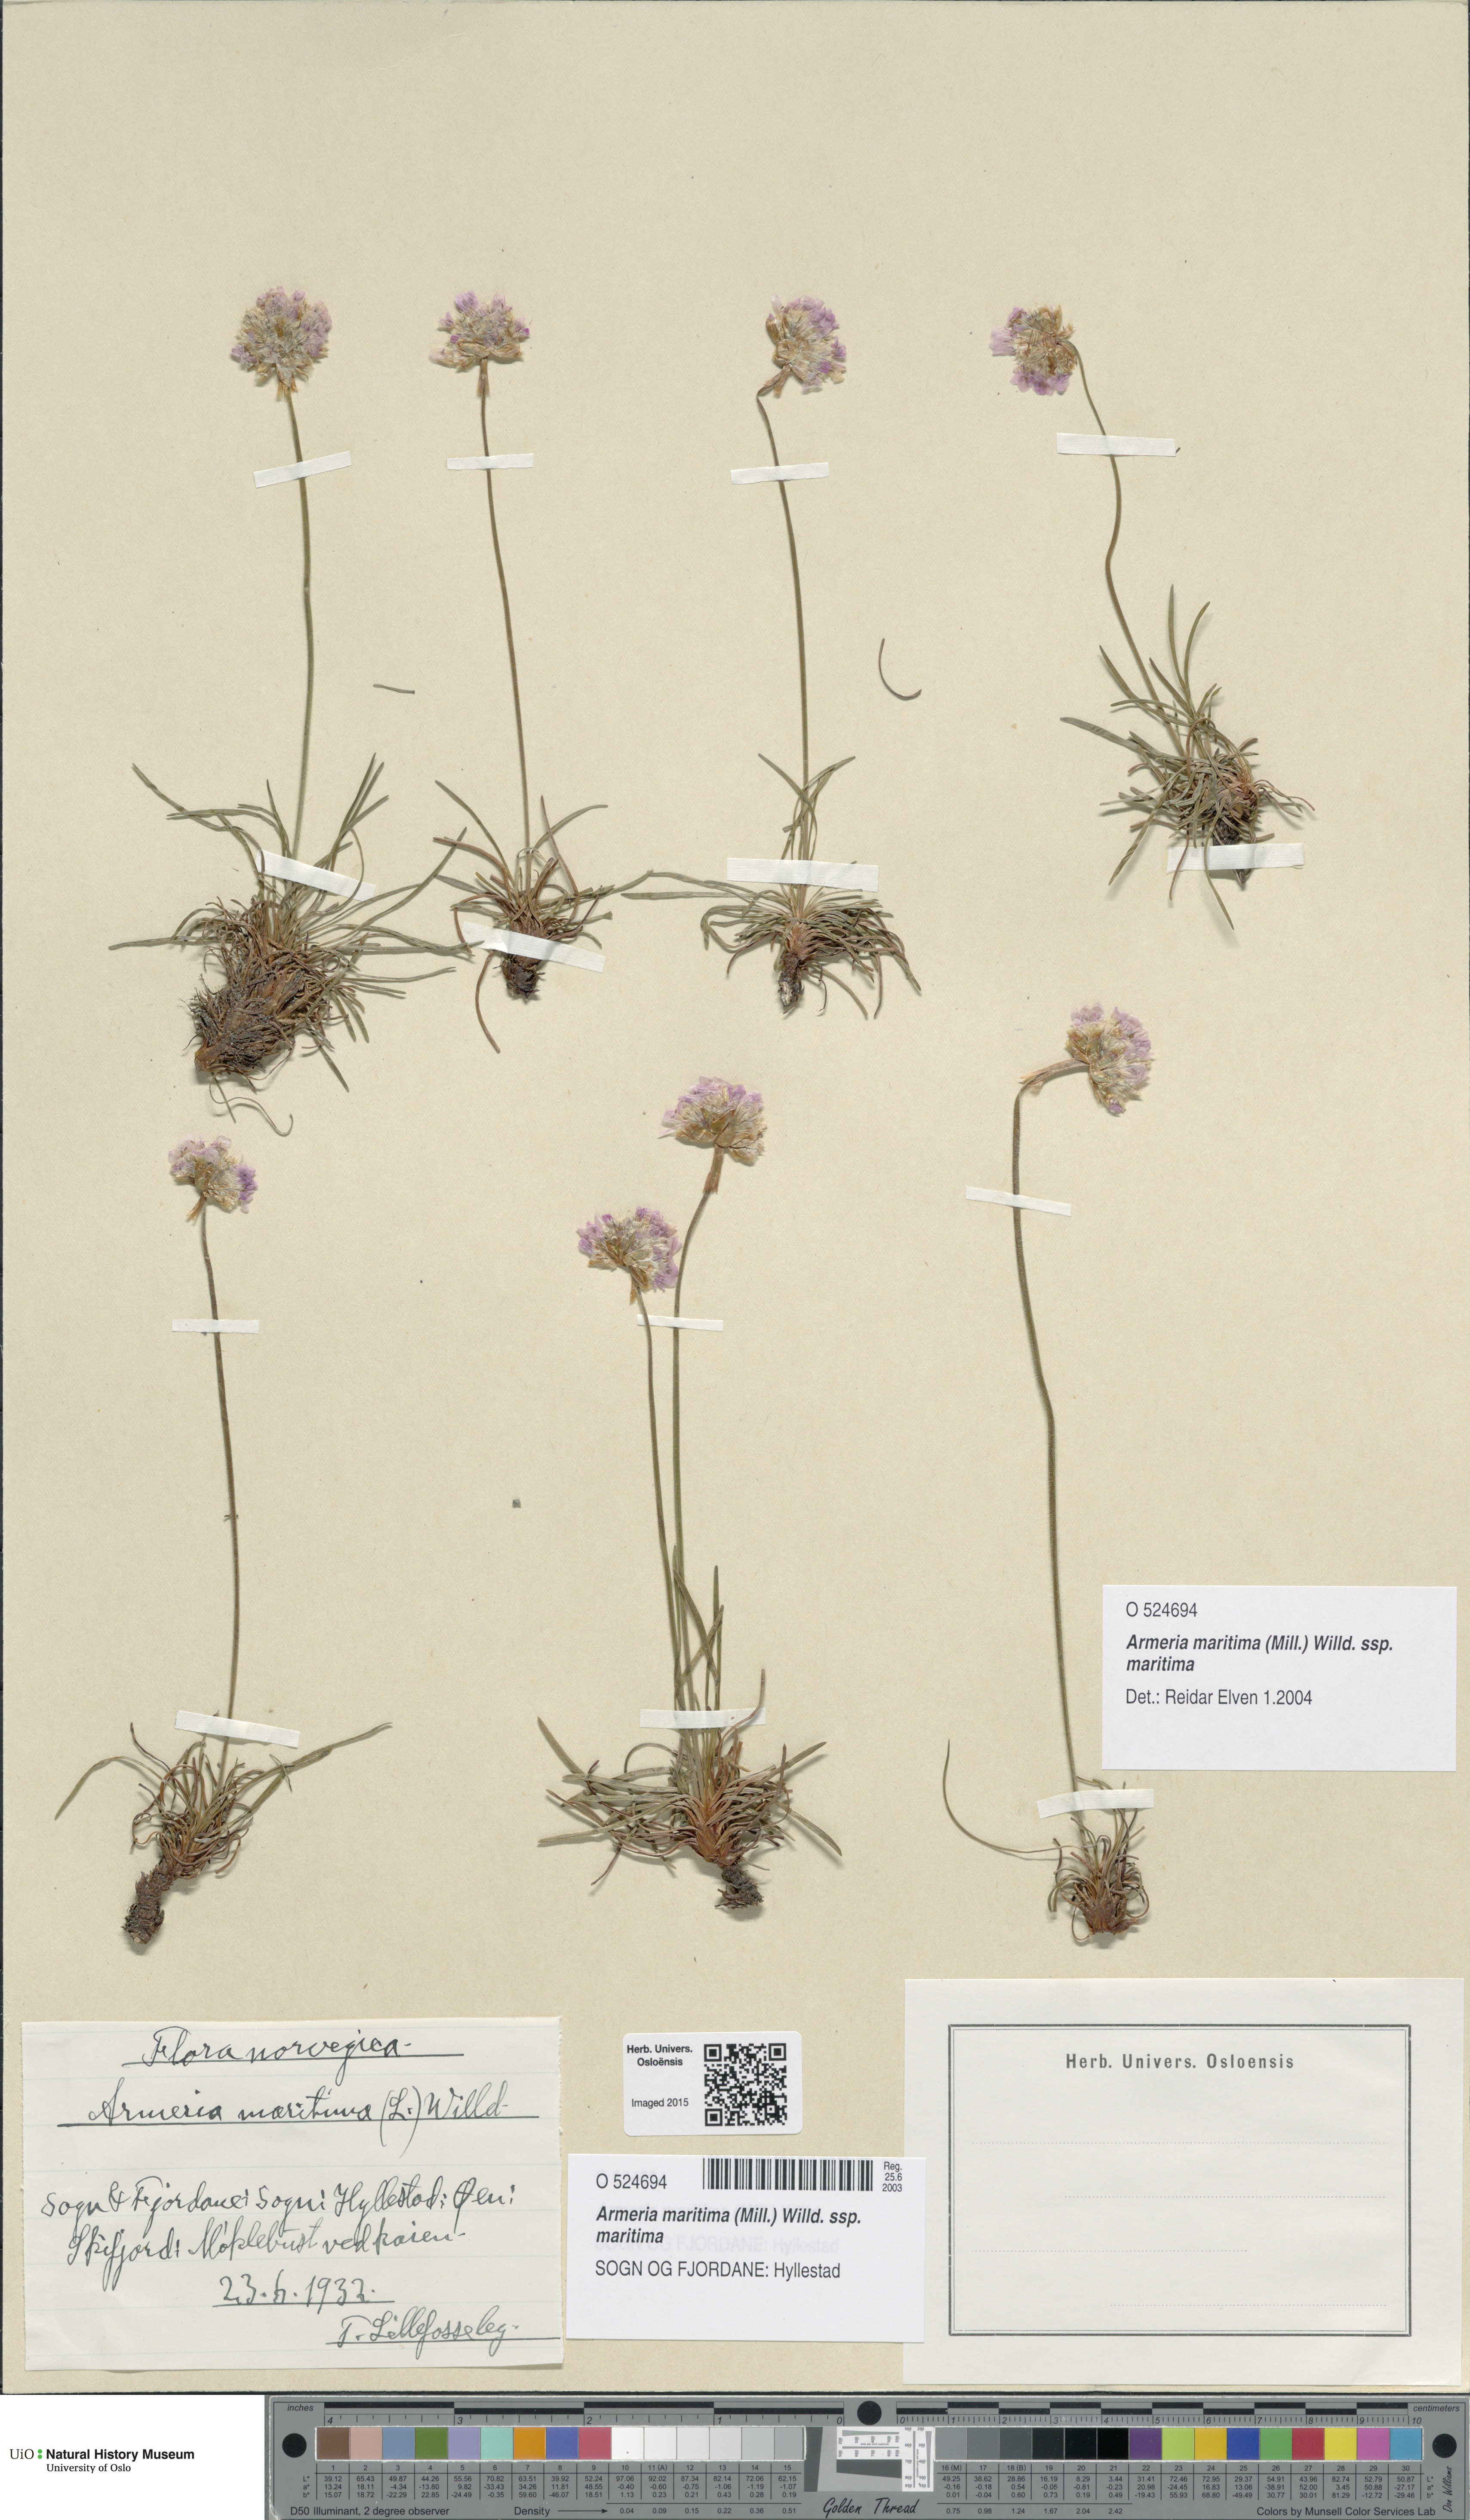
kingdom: Plantae
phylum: Tracheophyta
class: Magnoliopsida
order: Caryophyllales
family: Plumbaginaceae
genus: Armeria
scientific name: Armeria maritima
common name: Thrift
